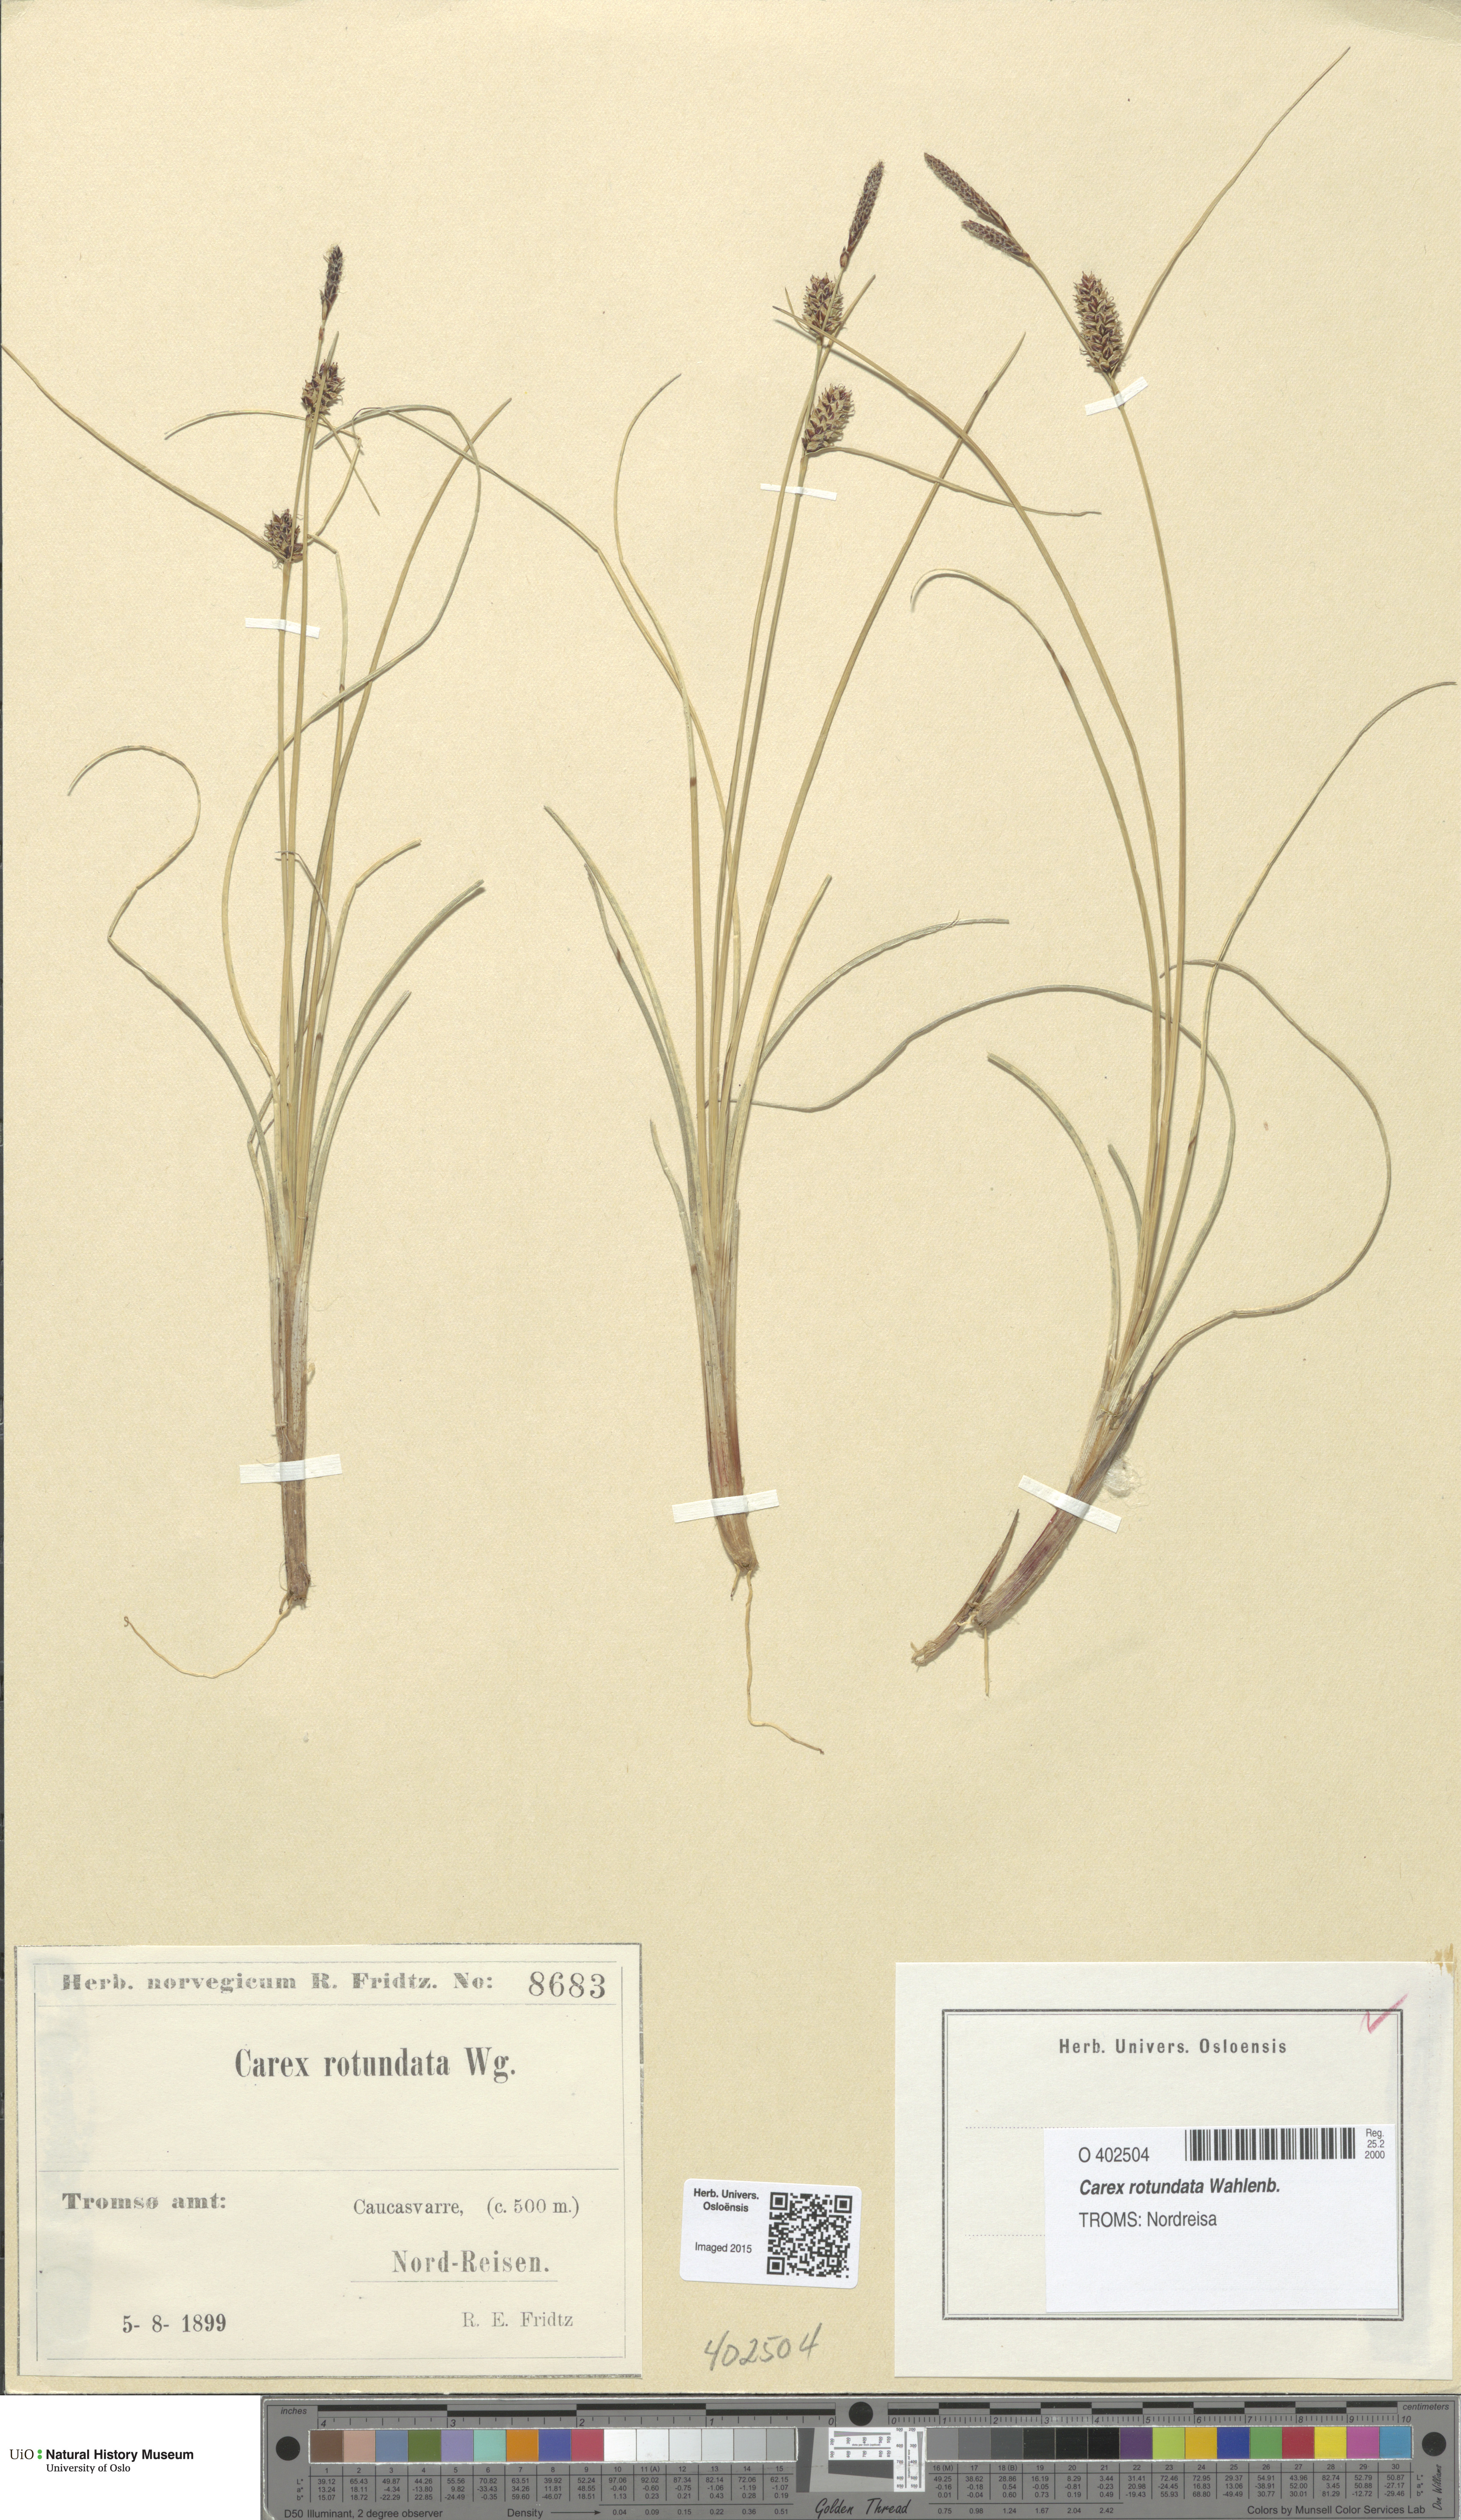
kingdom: Plantae
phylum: Tracheophyta
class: Liliopsida
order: Poales
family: Cyperaceae
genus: Carex
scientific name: Carex rotundata
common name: Round-fruited sedge
